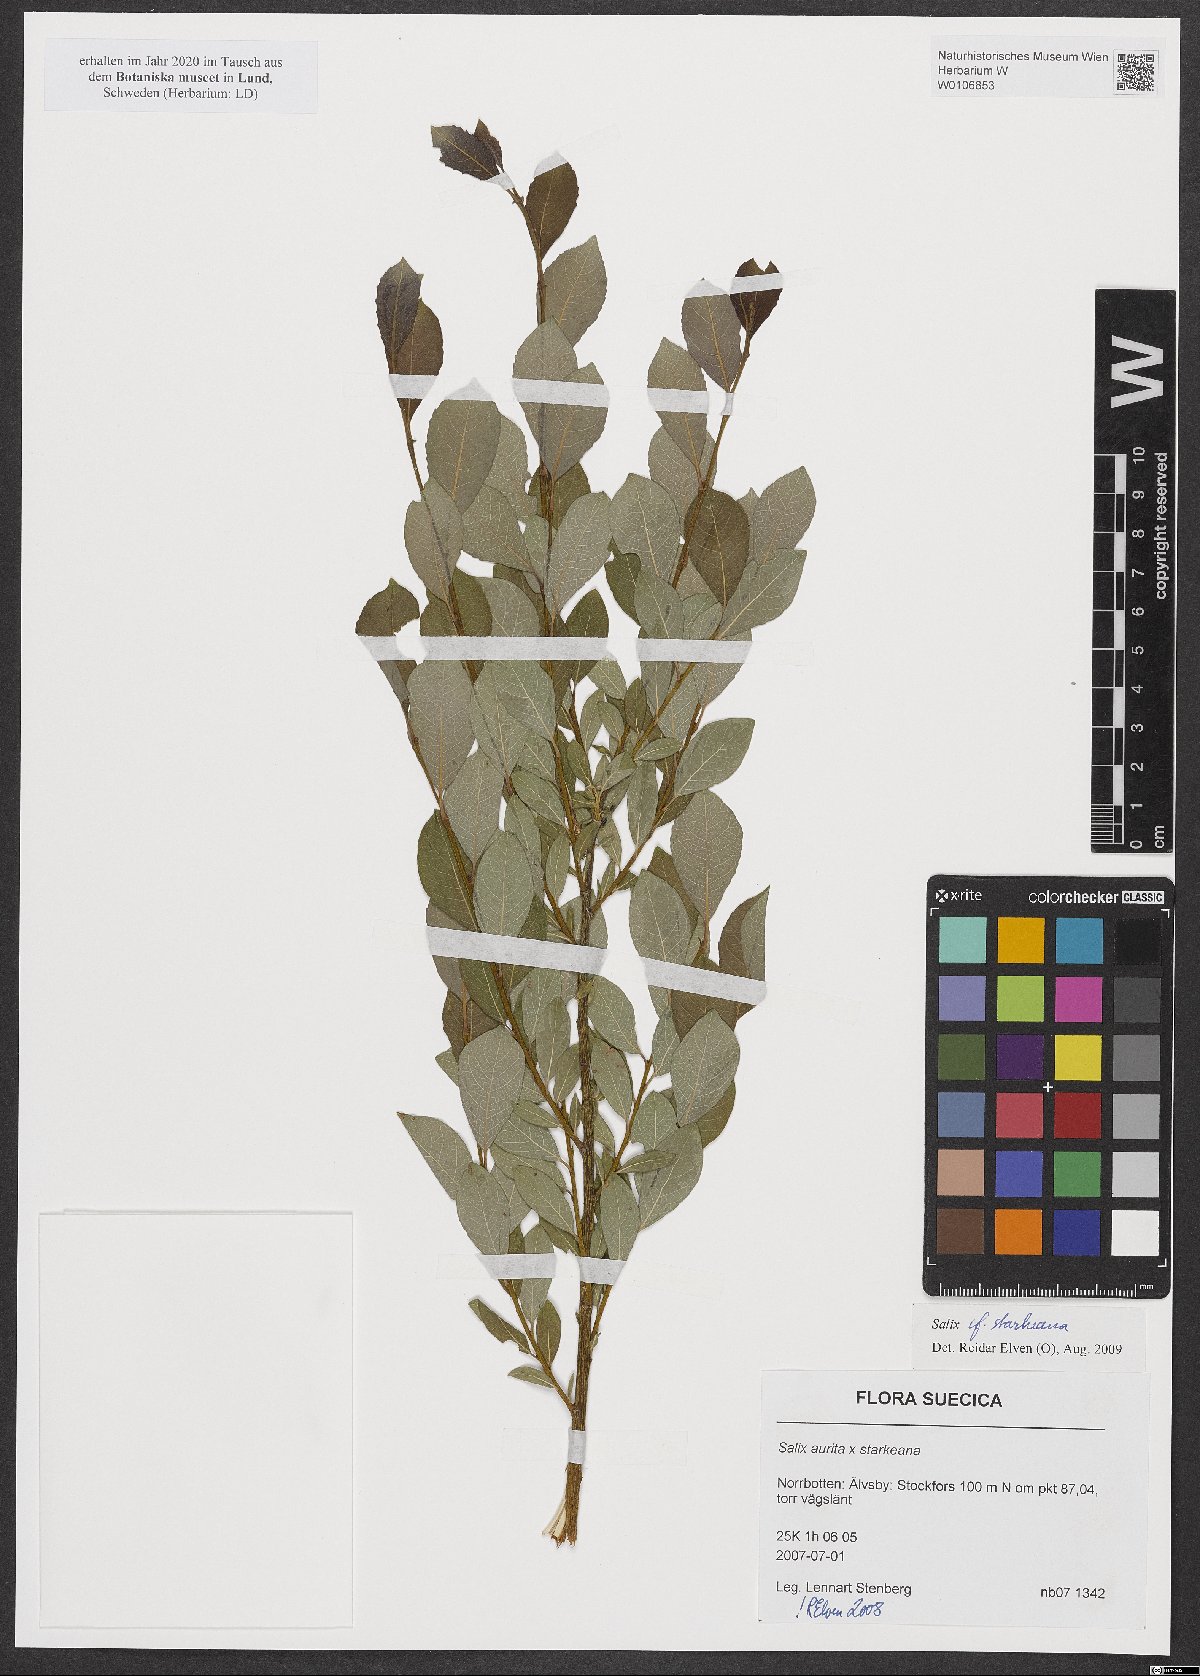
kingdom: Plantae
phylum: Tracheophyta
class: Magnoliopsida
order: Malpighiales
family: Salicaceae
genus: Salix
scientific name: Salix starkeana
